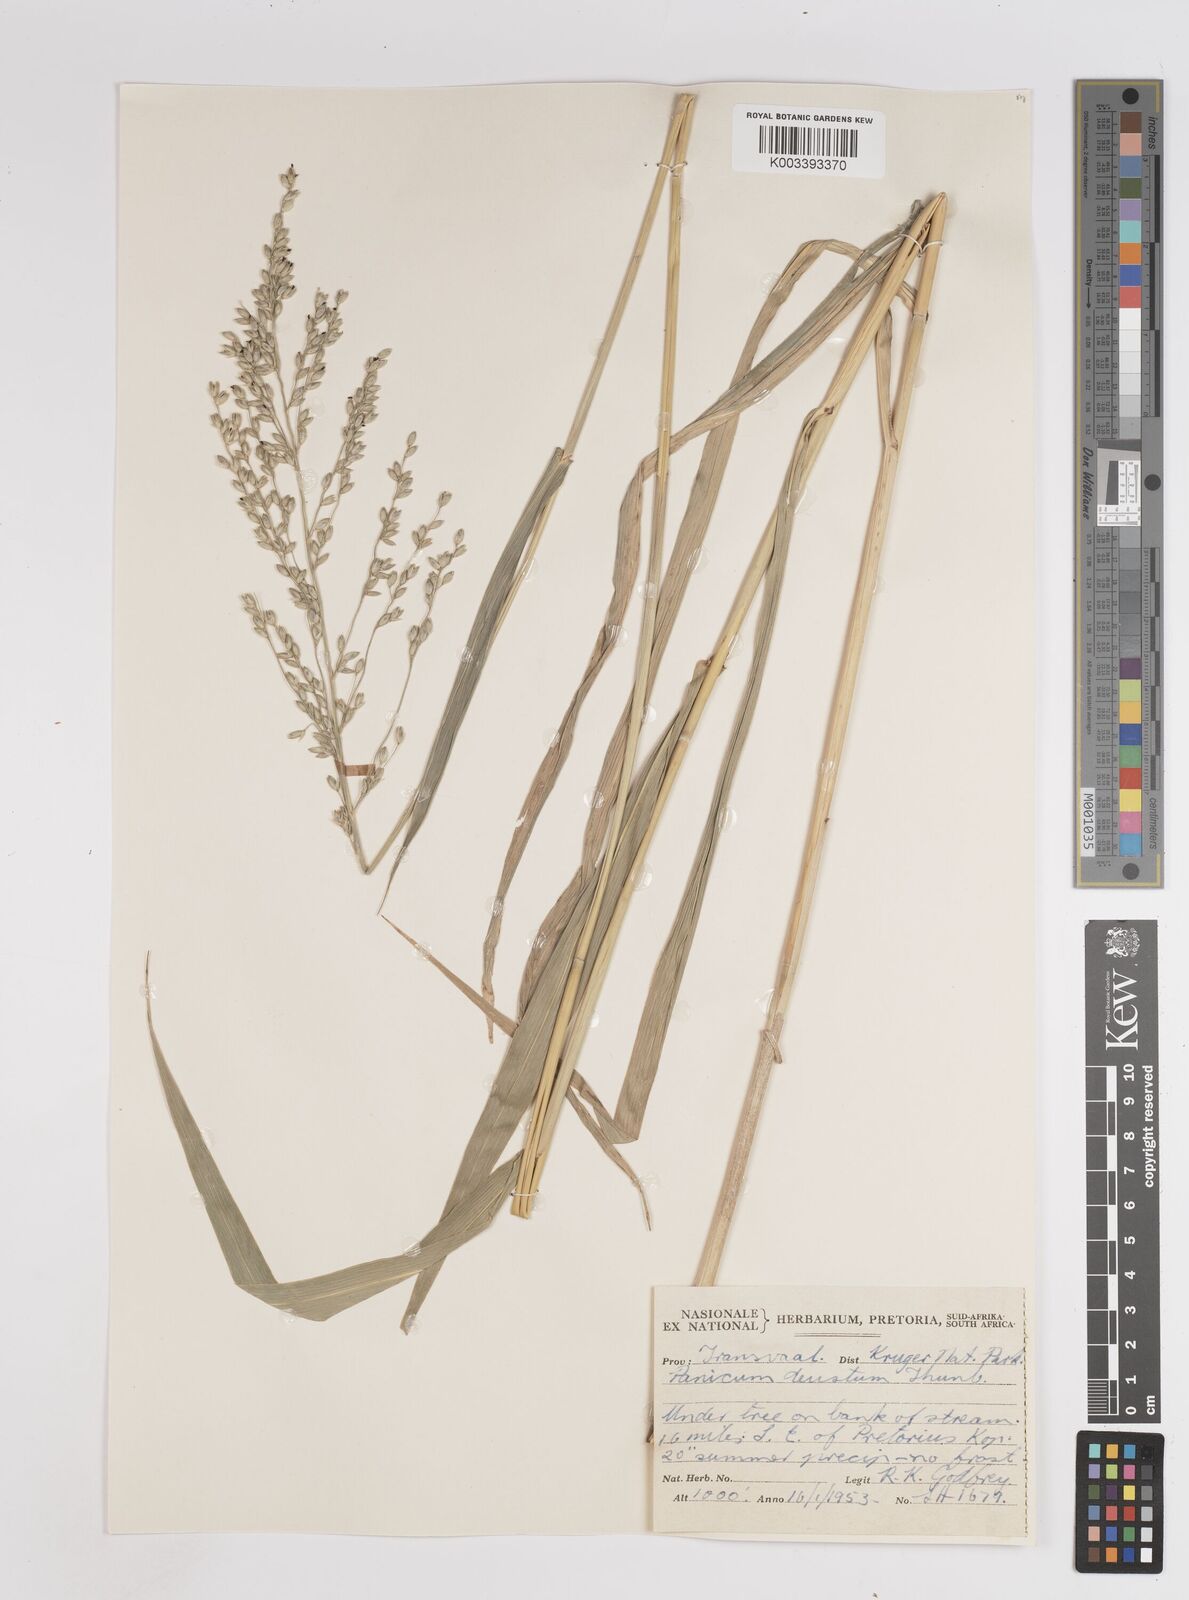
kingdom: Plantae
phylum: Tracheophyta
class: Liliopsida
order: Poales
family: Poaceae
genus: Panicum
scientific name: Panicum deustum
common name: Reed panicum
